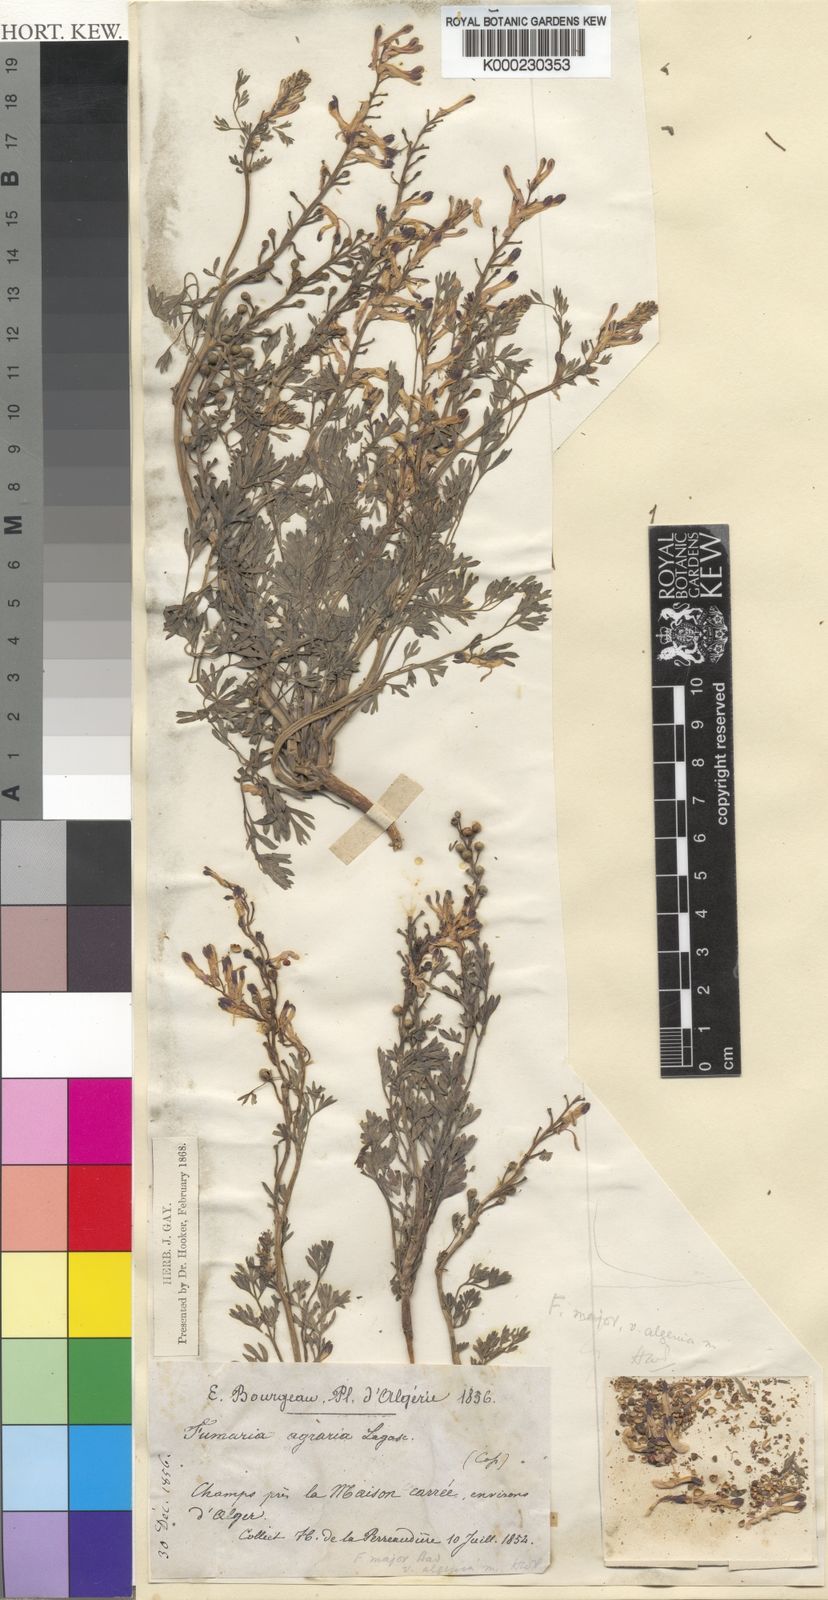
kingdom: Plantae
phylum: Tracheophyta
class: Magnoliopsida
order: Ranunculales
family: Papaveraceae
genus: Fumaria
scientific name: Fumaria
